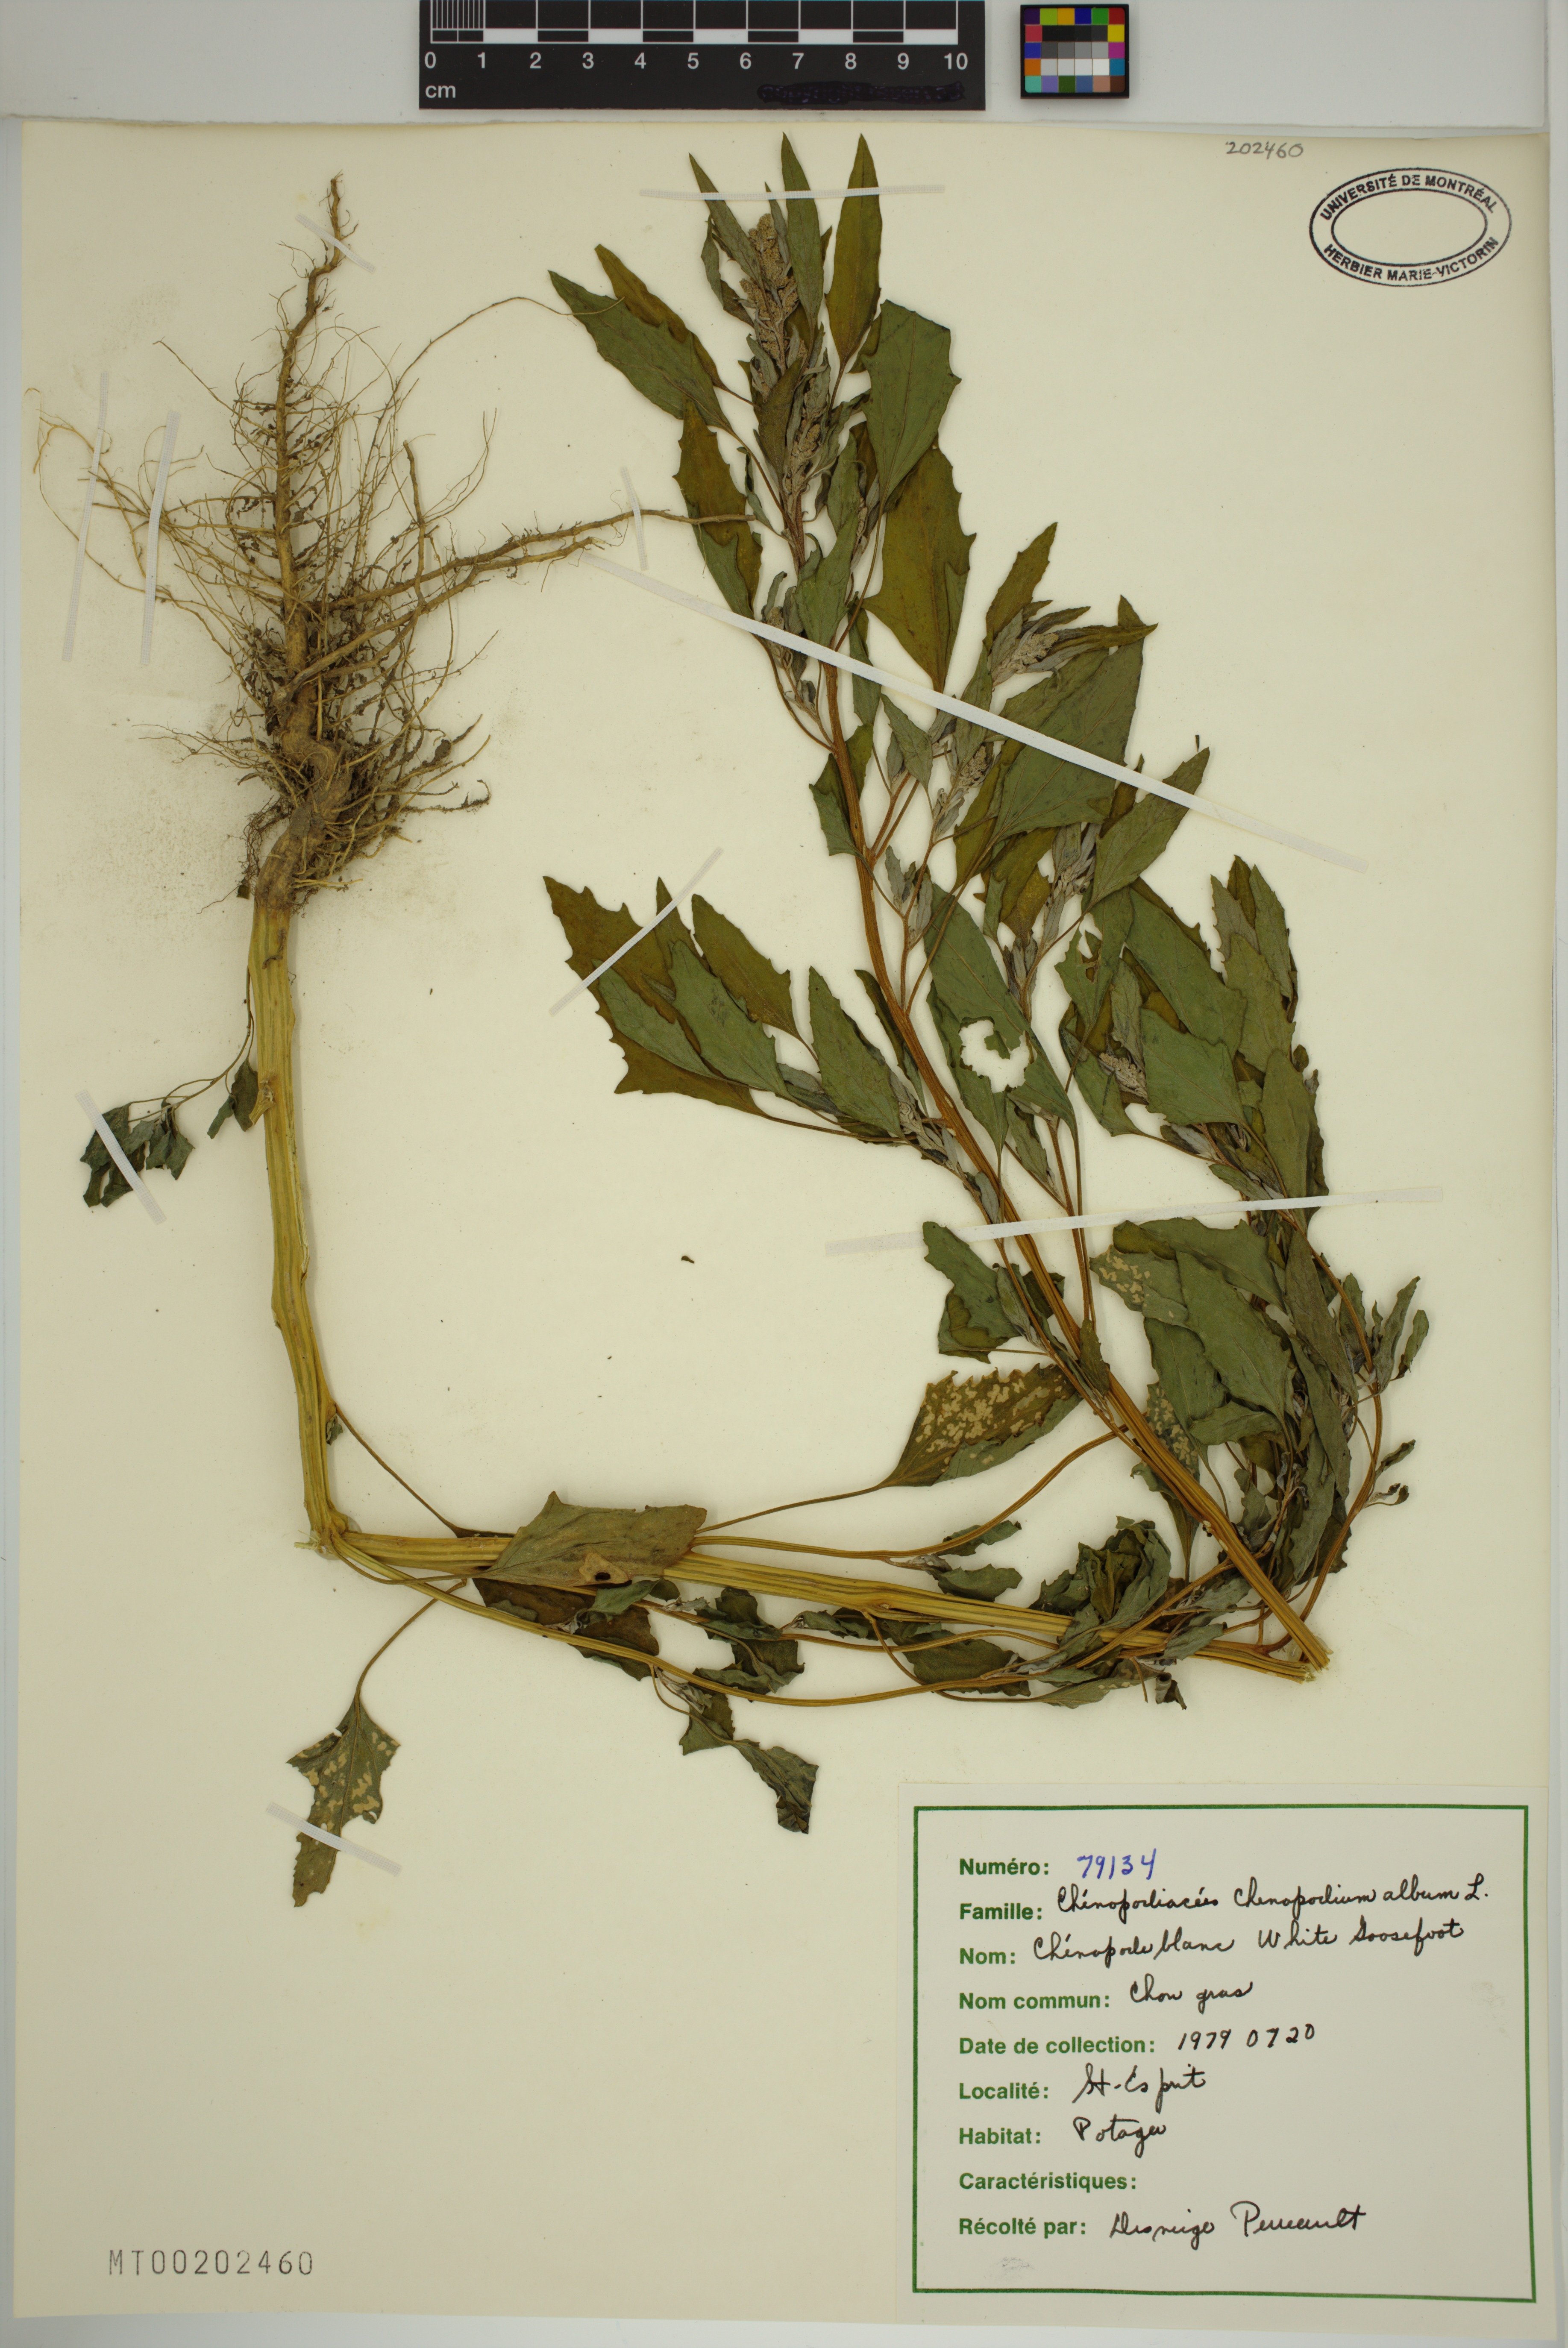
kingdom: Plantae
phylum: Tracheophyta
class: Magnoliopsida
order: Caryophyllales
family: Amaranthaceae
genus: Chenopodium
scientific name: Chenopodium album
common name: Fat-hen
